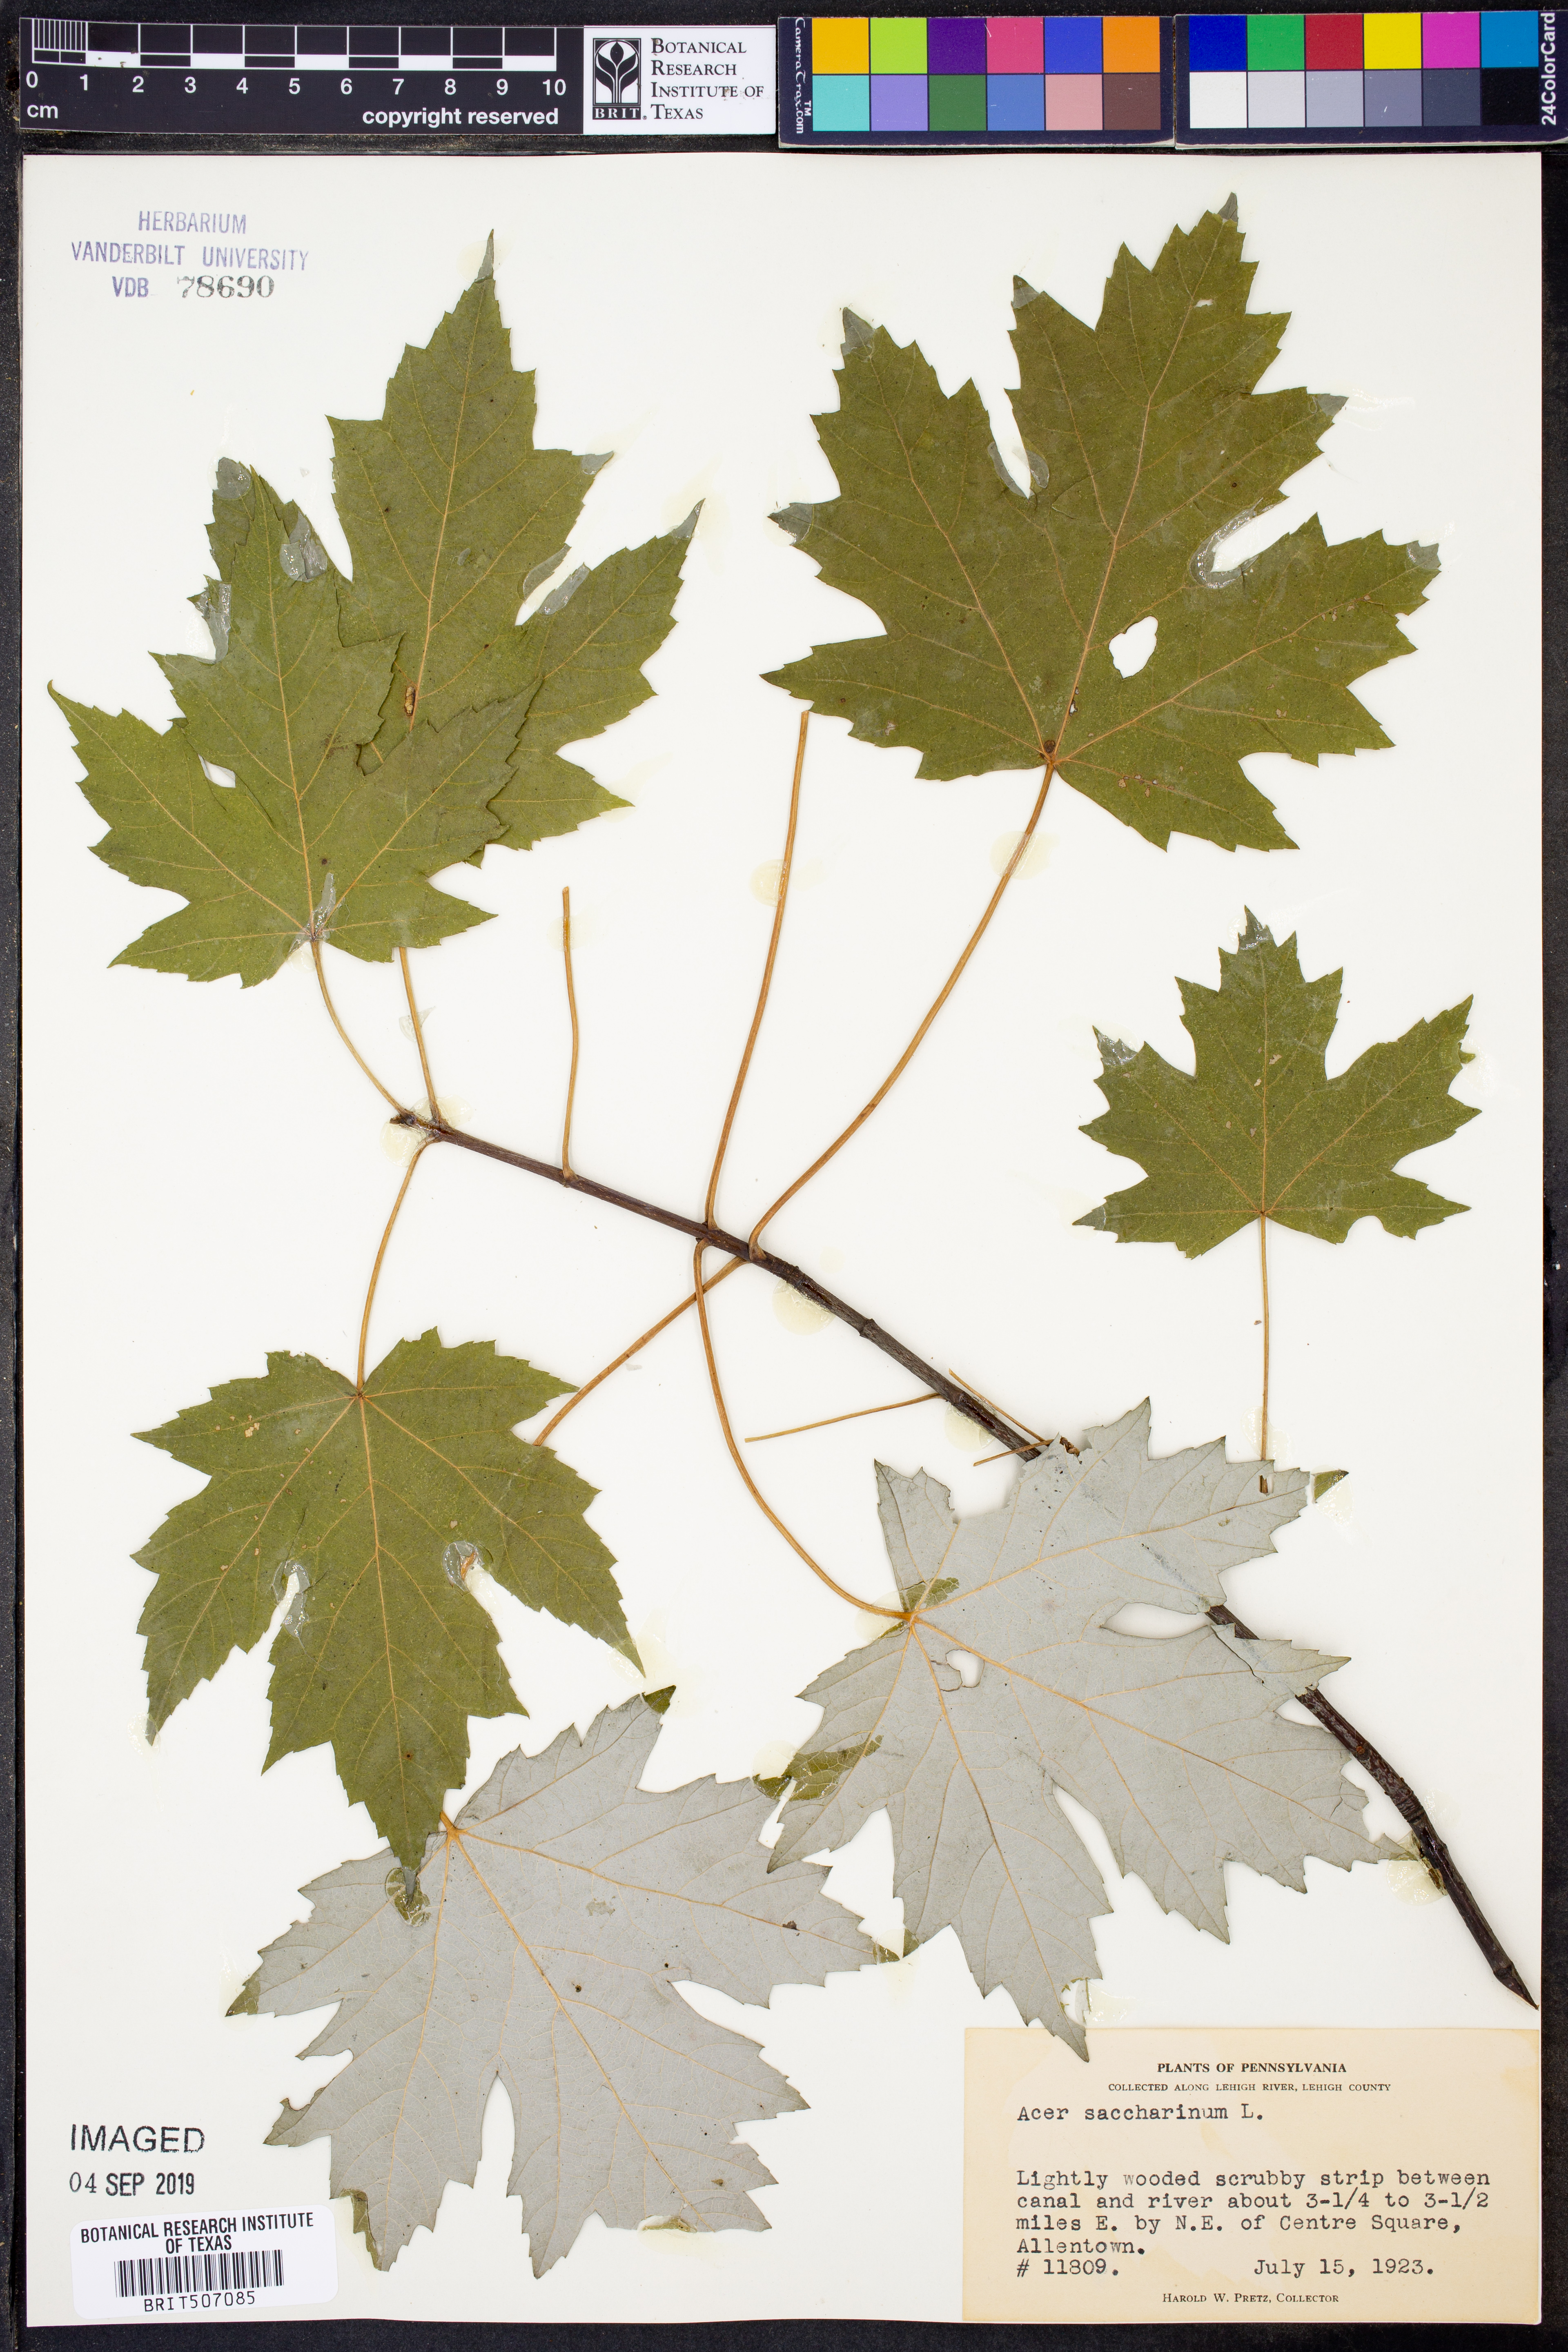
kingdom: Plantae
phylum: Tracheophyta
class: Magnoliopsida
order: Sapindales
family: Sapindaceae
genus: Acer
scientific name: Acer saccharinum
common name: Silver maple
